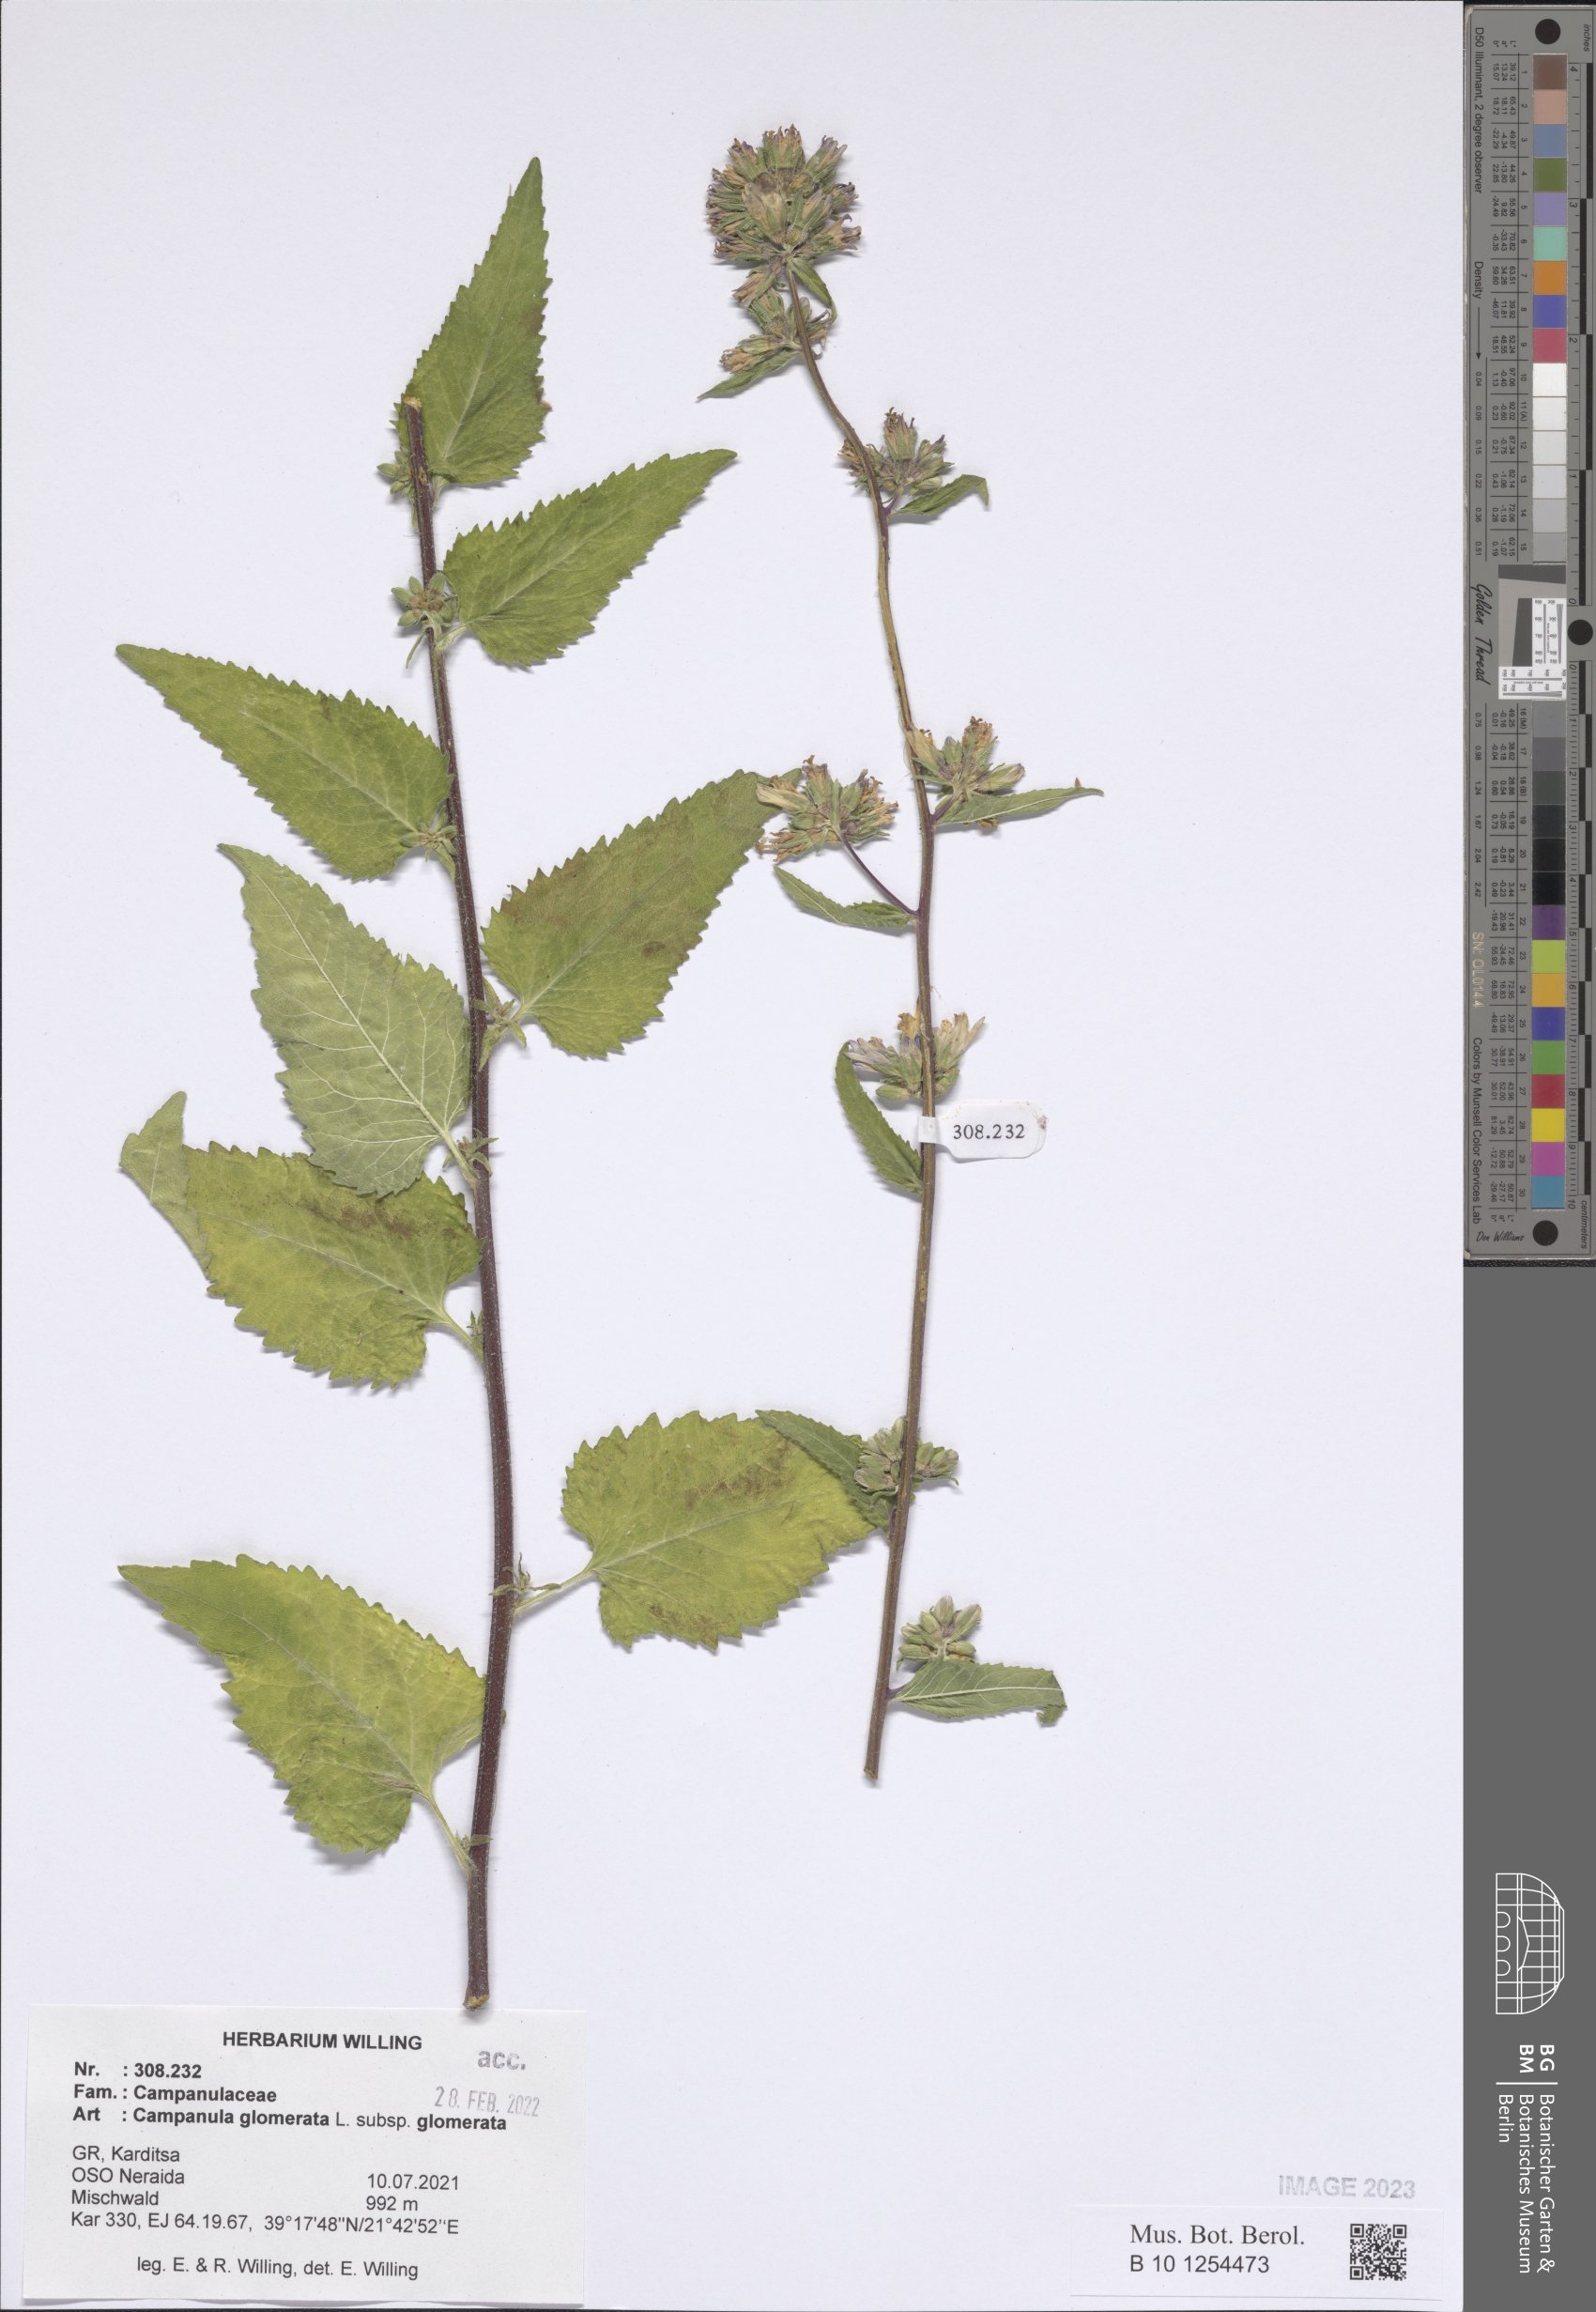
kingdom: Plantae
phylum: Tracheophyta
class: Magnoliopsida
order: Asterales
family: Campanulaceae
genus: Campanula
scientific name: Campanula glomerata
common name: Clustered bellflower
